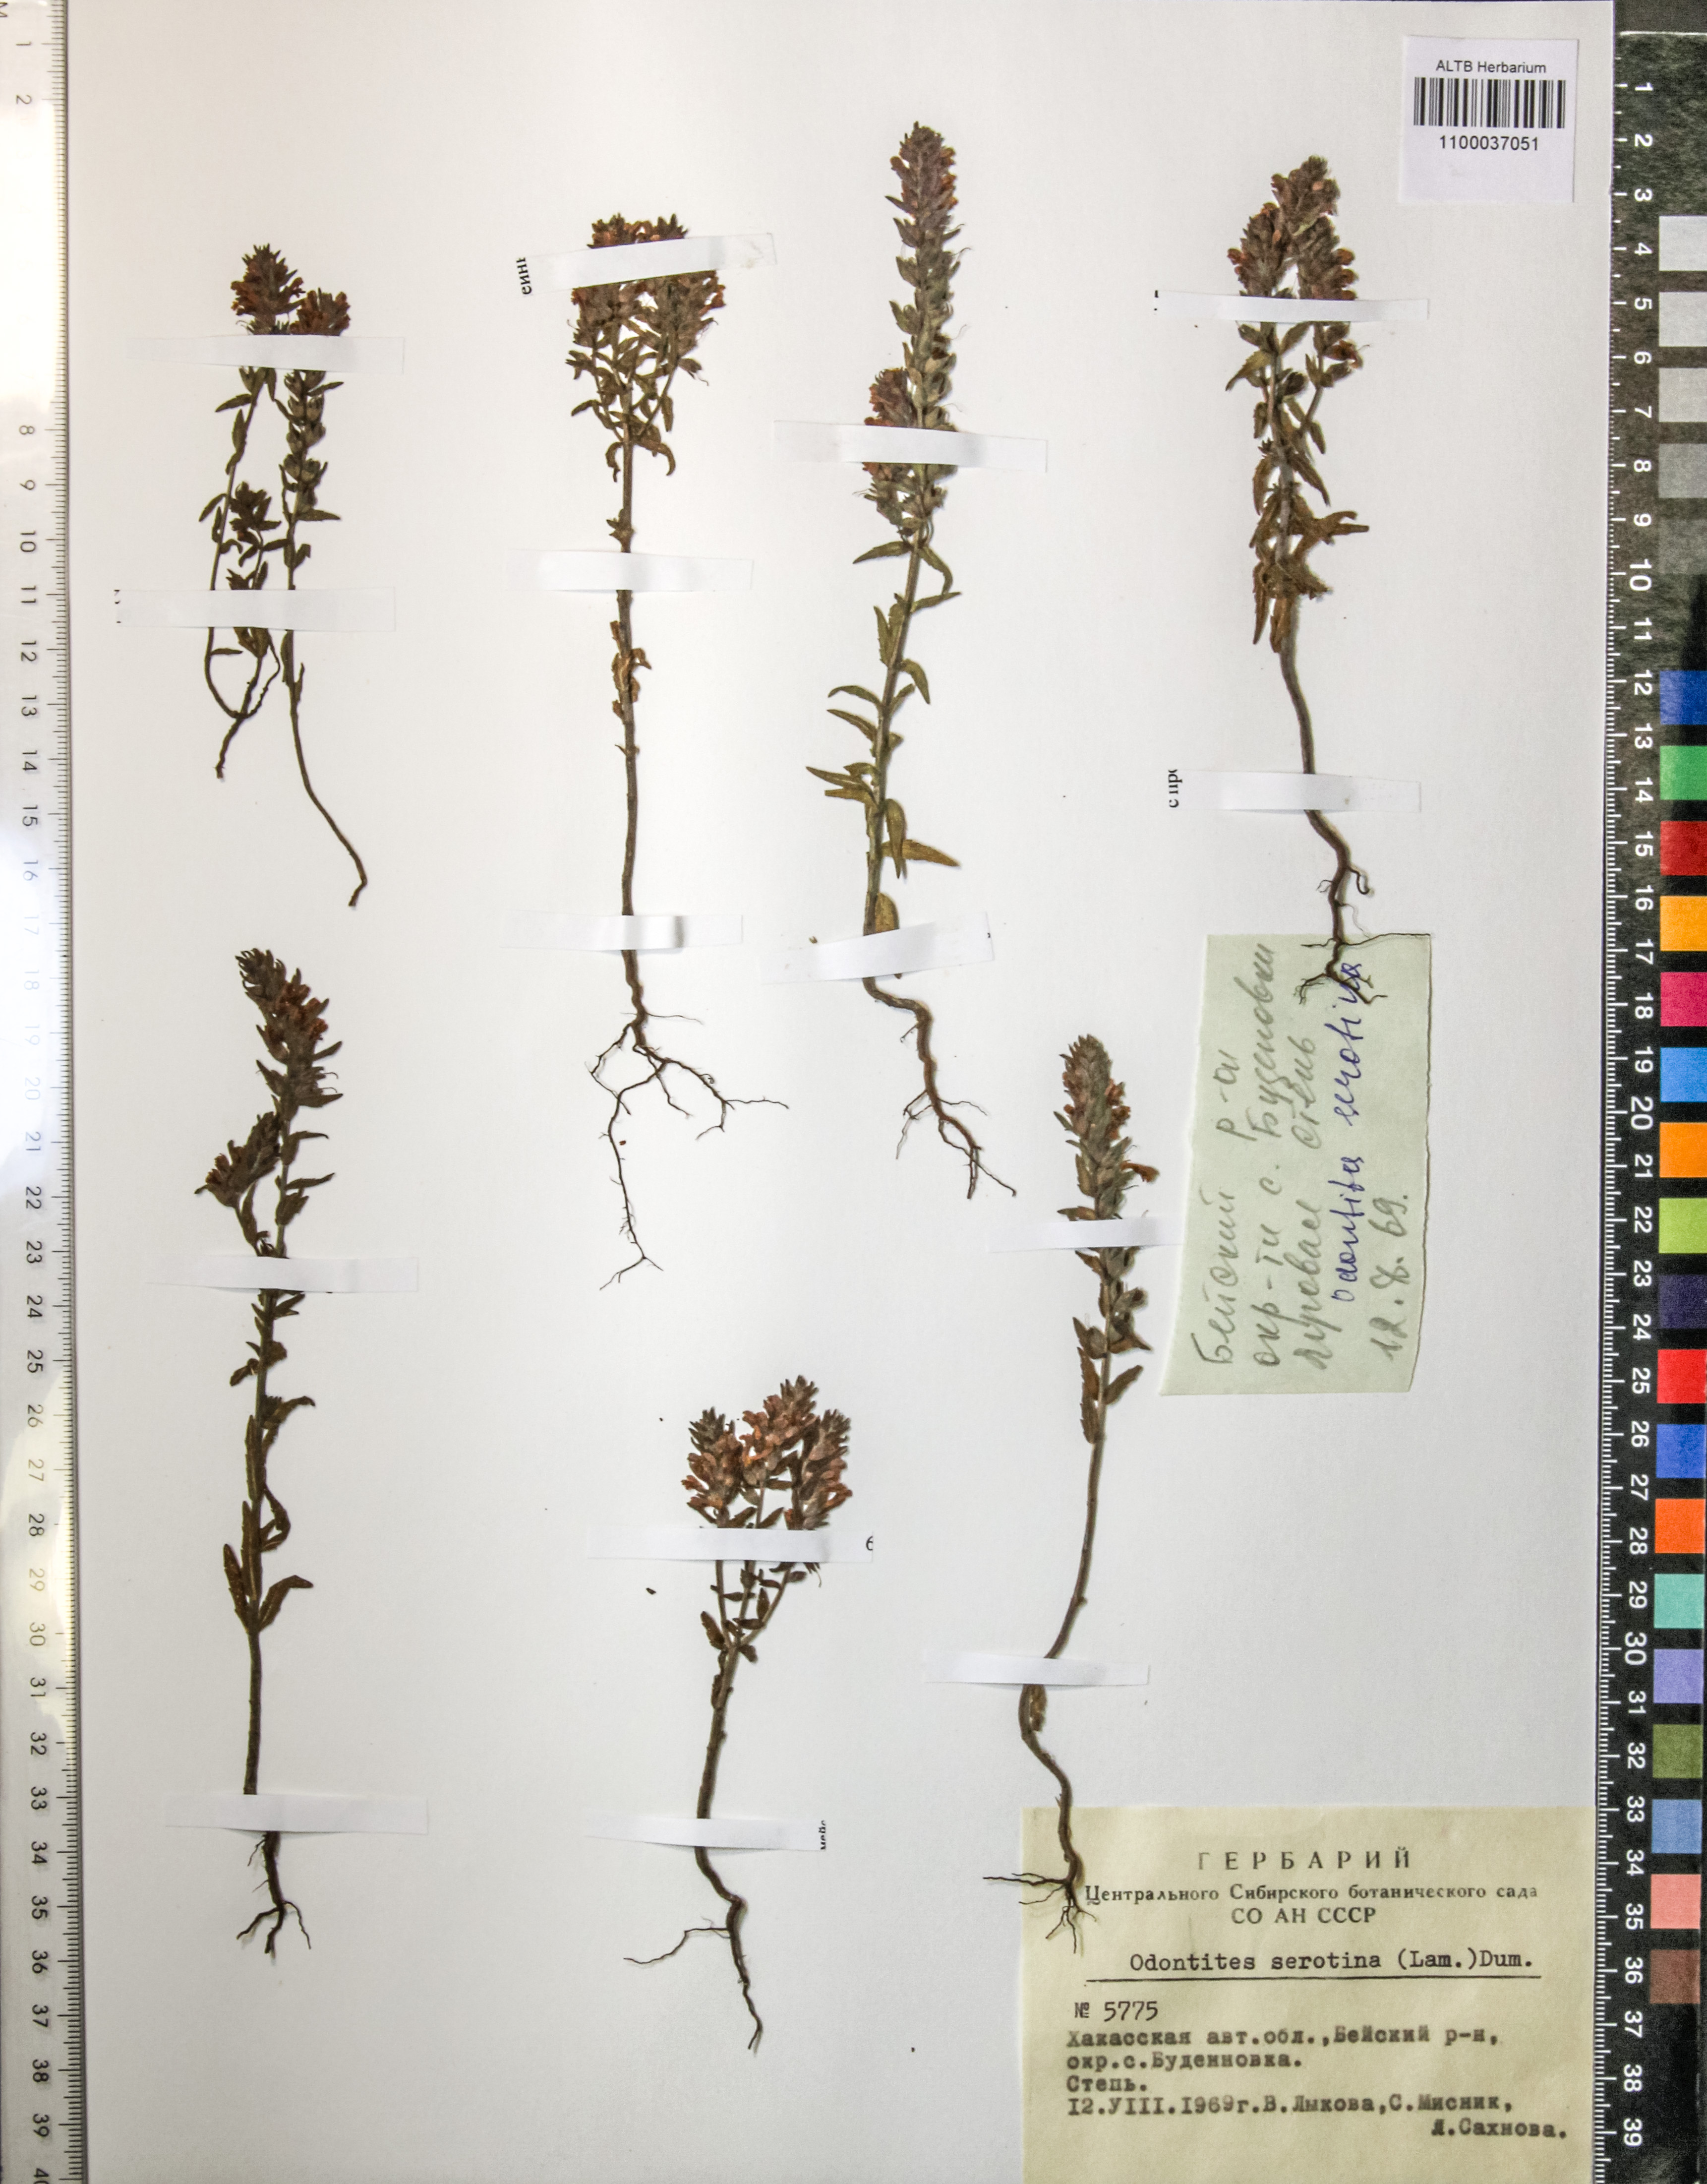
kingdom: Plantae
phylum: Tracheophyta
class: Magnoliopsida
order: Lamiales
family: Orobanchaceae
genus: Odontites
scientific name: Odontites vulgaris
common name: Broomrape
